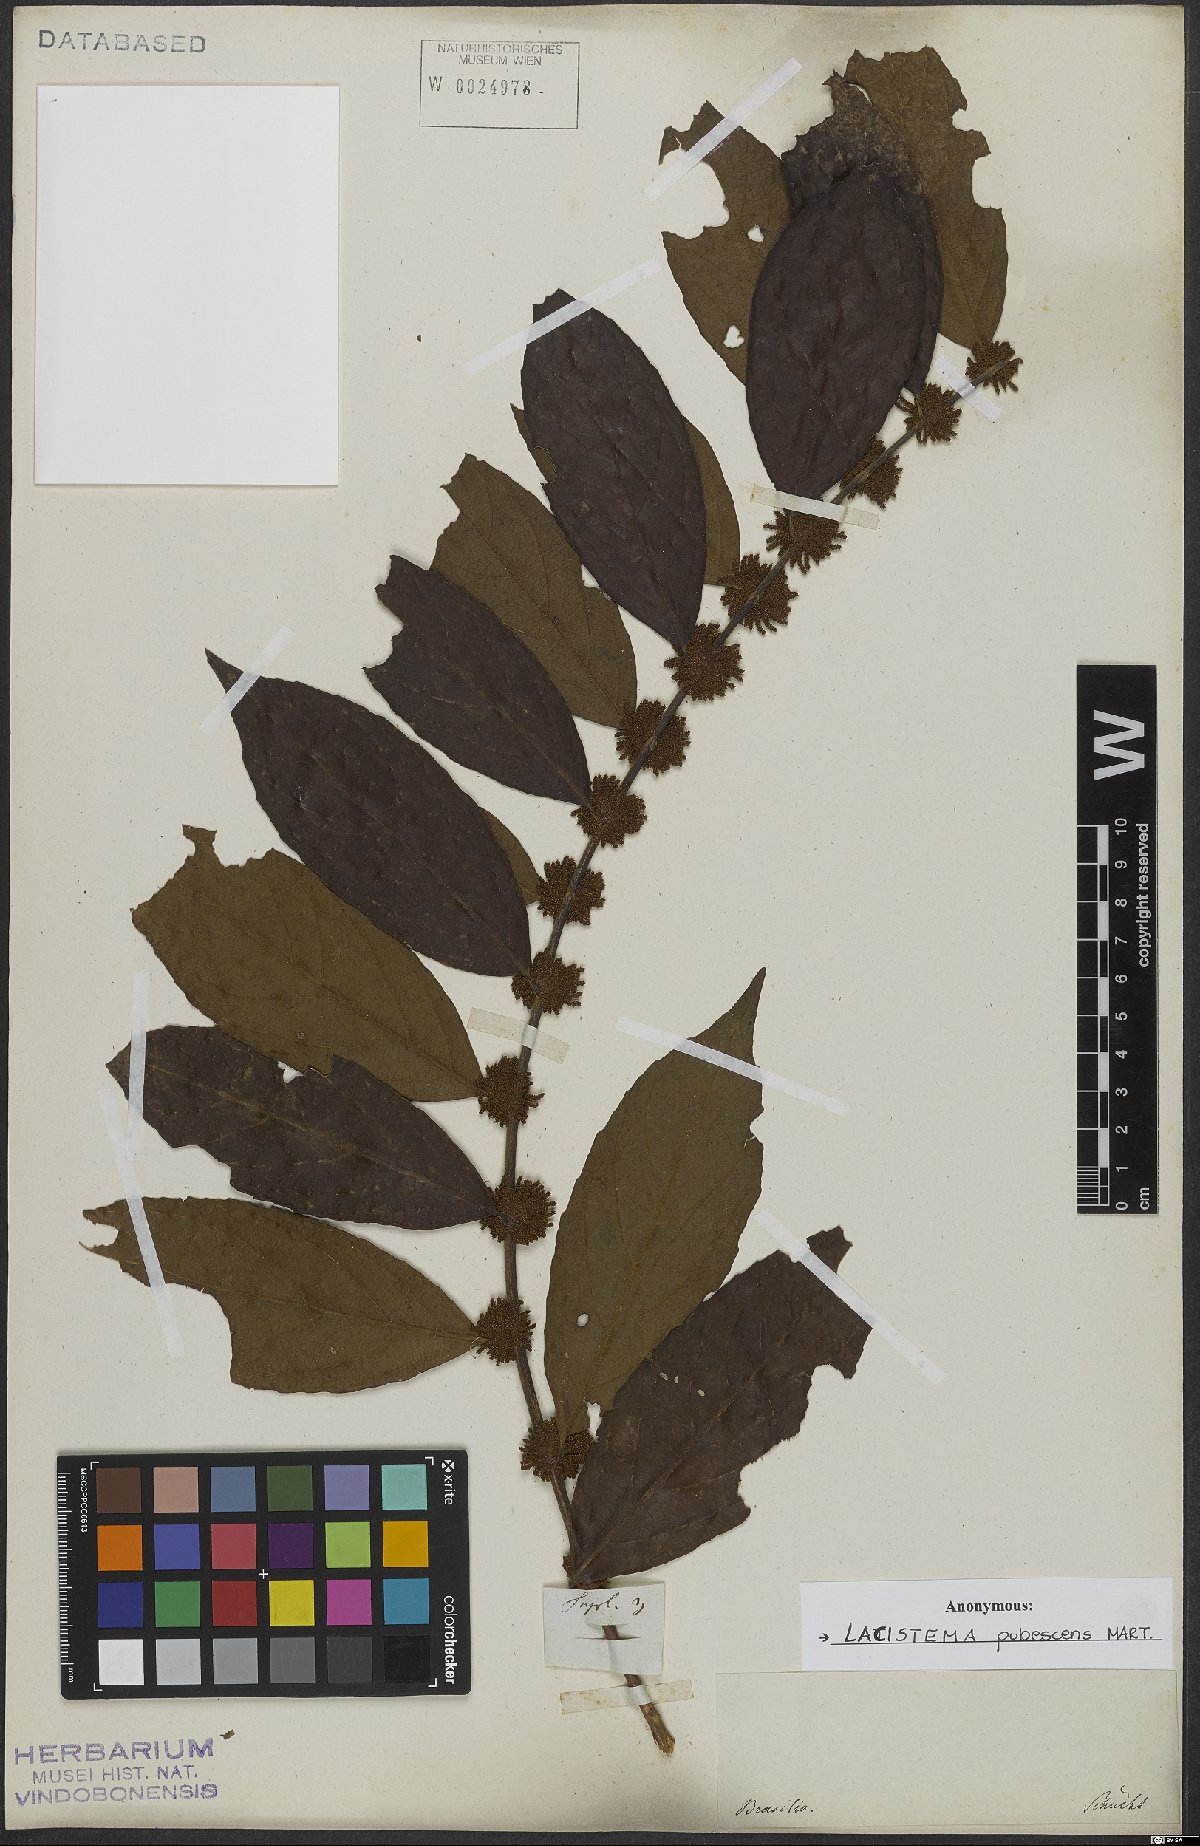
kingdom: Plantae
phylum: Tracheophyta
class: Magnoliopsida
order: Malpighiales
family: Lacistemataceae
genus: Lacistema
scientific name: Lacistema pubescens
